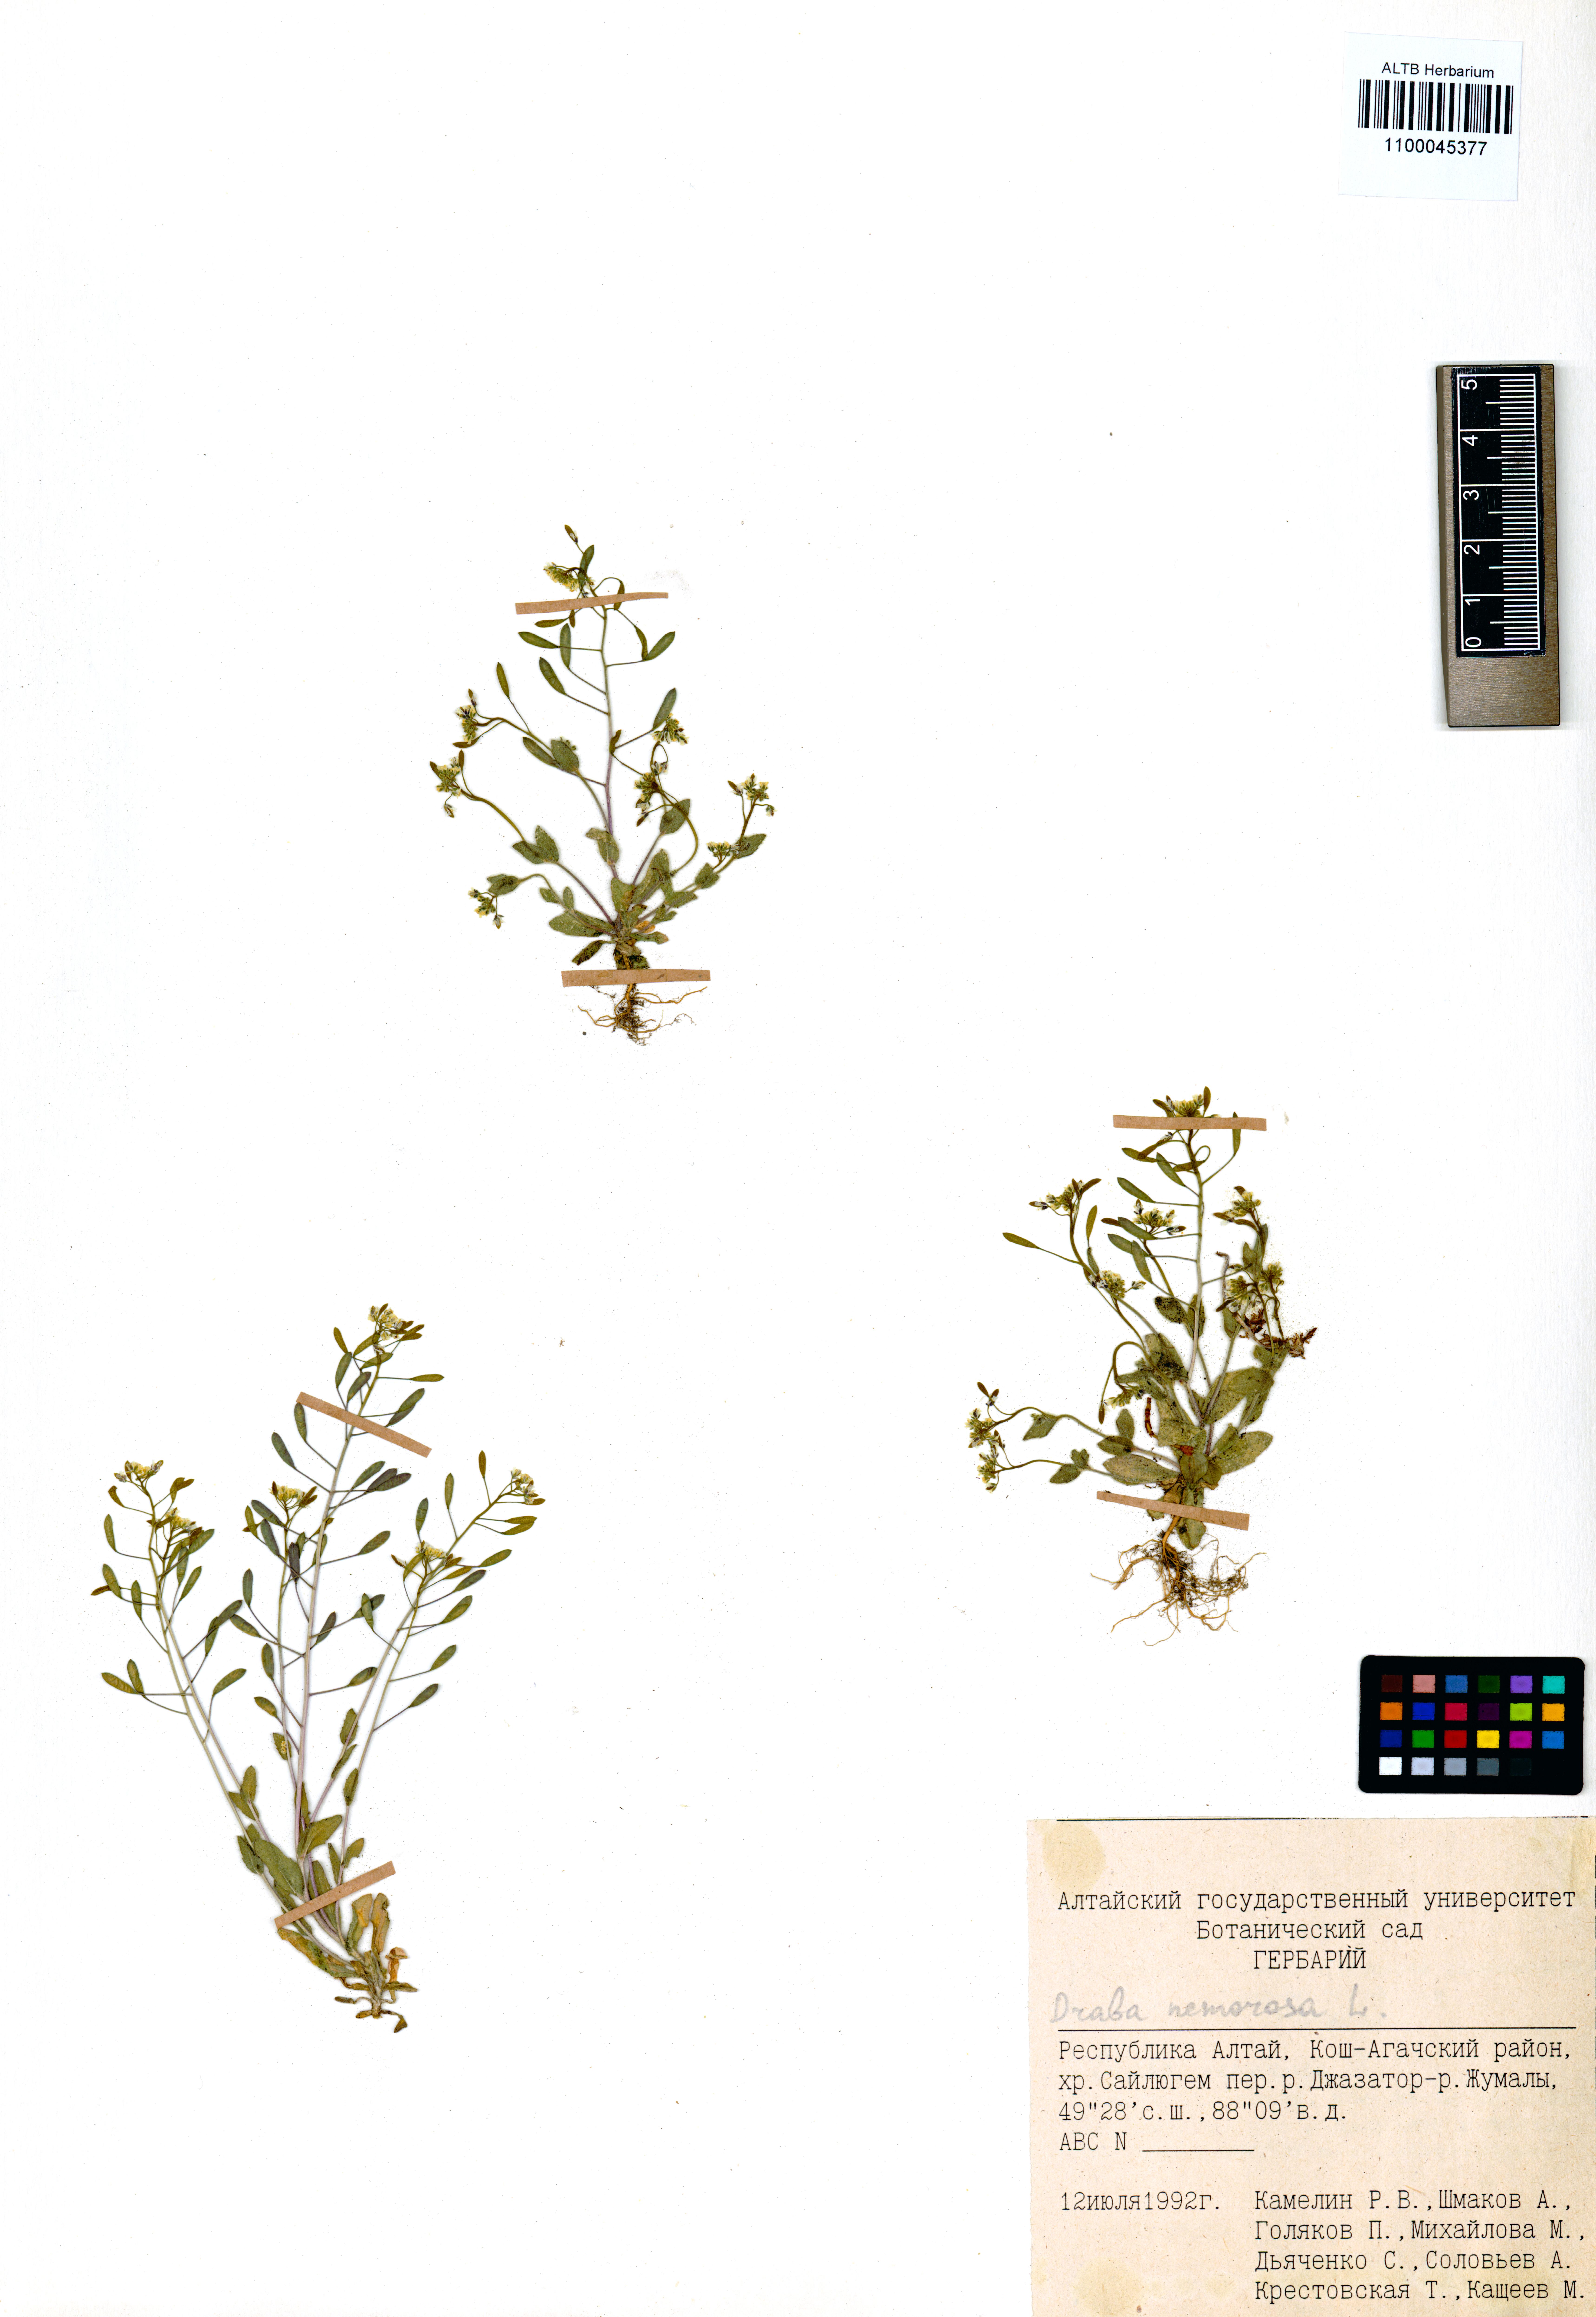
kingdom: Plantae
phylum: Tracheophyta
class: Magnoliopsida
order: Brassicales
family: Brassicaceae
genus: Draba
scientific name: Draba nemorosa
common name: Wood whitlow-grass
